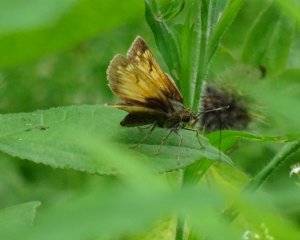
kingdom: Animalia
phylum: Arthropoda
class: Insecta
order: Lepidoptera
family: Hesperiidae
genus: Lon
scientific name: Lon hobomok
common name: Hobomok Skipper
